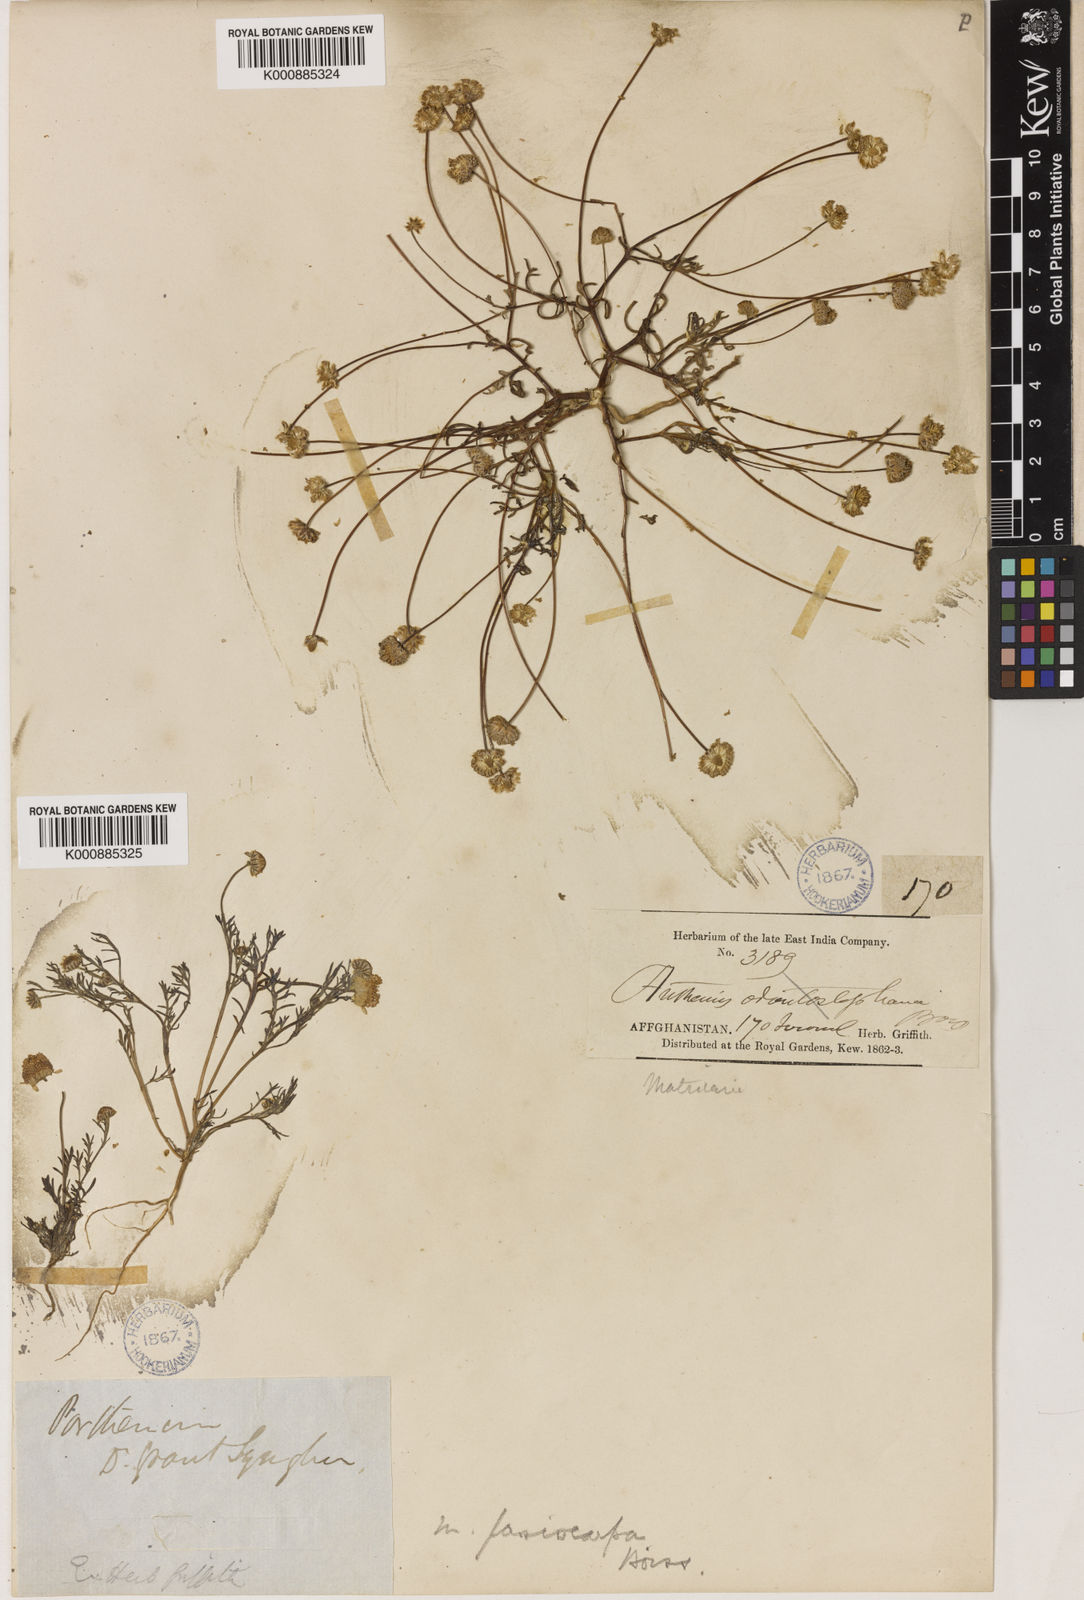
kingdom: Plantae
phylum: Tracheophyta
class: Magnoliopsida
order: Asterales
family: Asteraceae
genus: Microcephala
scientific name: Microcephala lamellata
